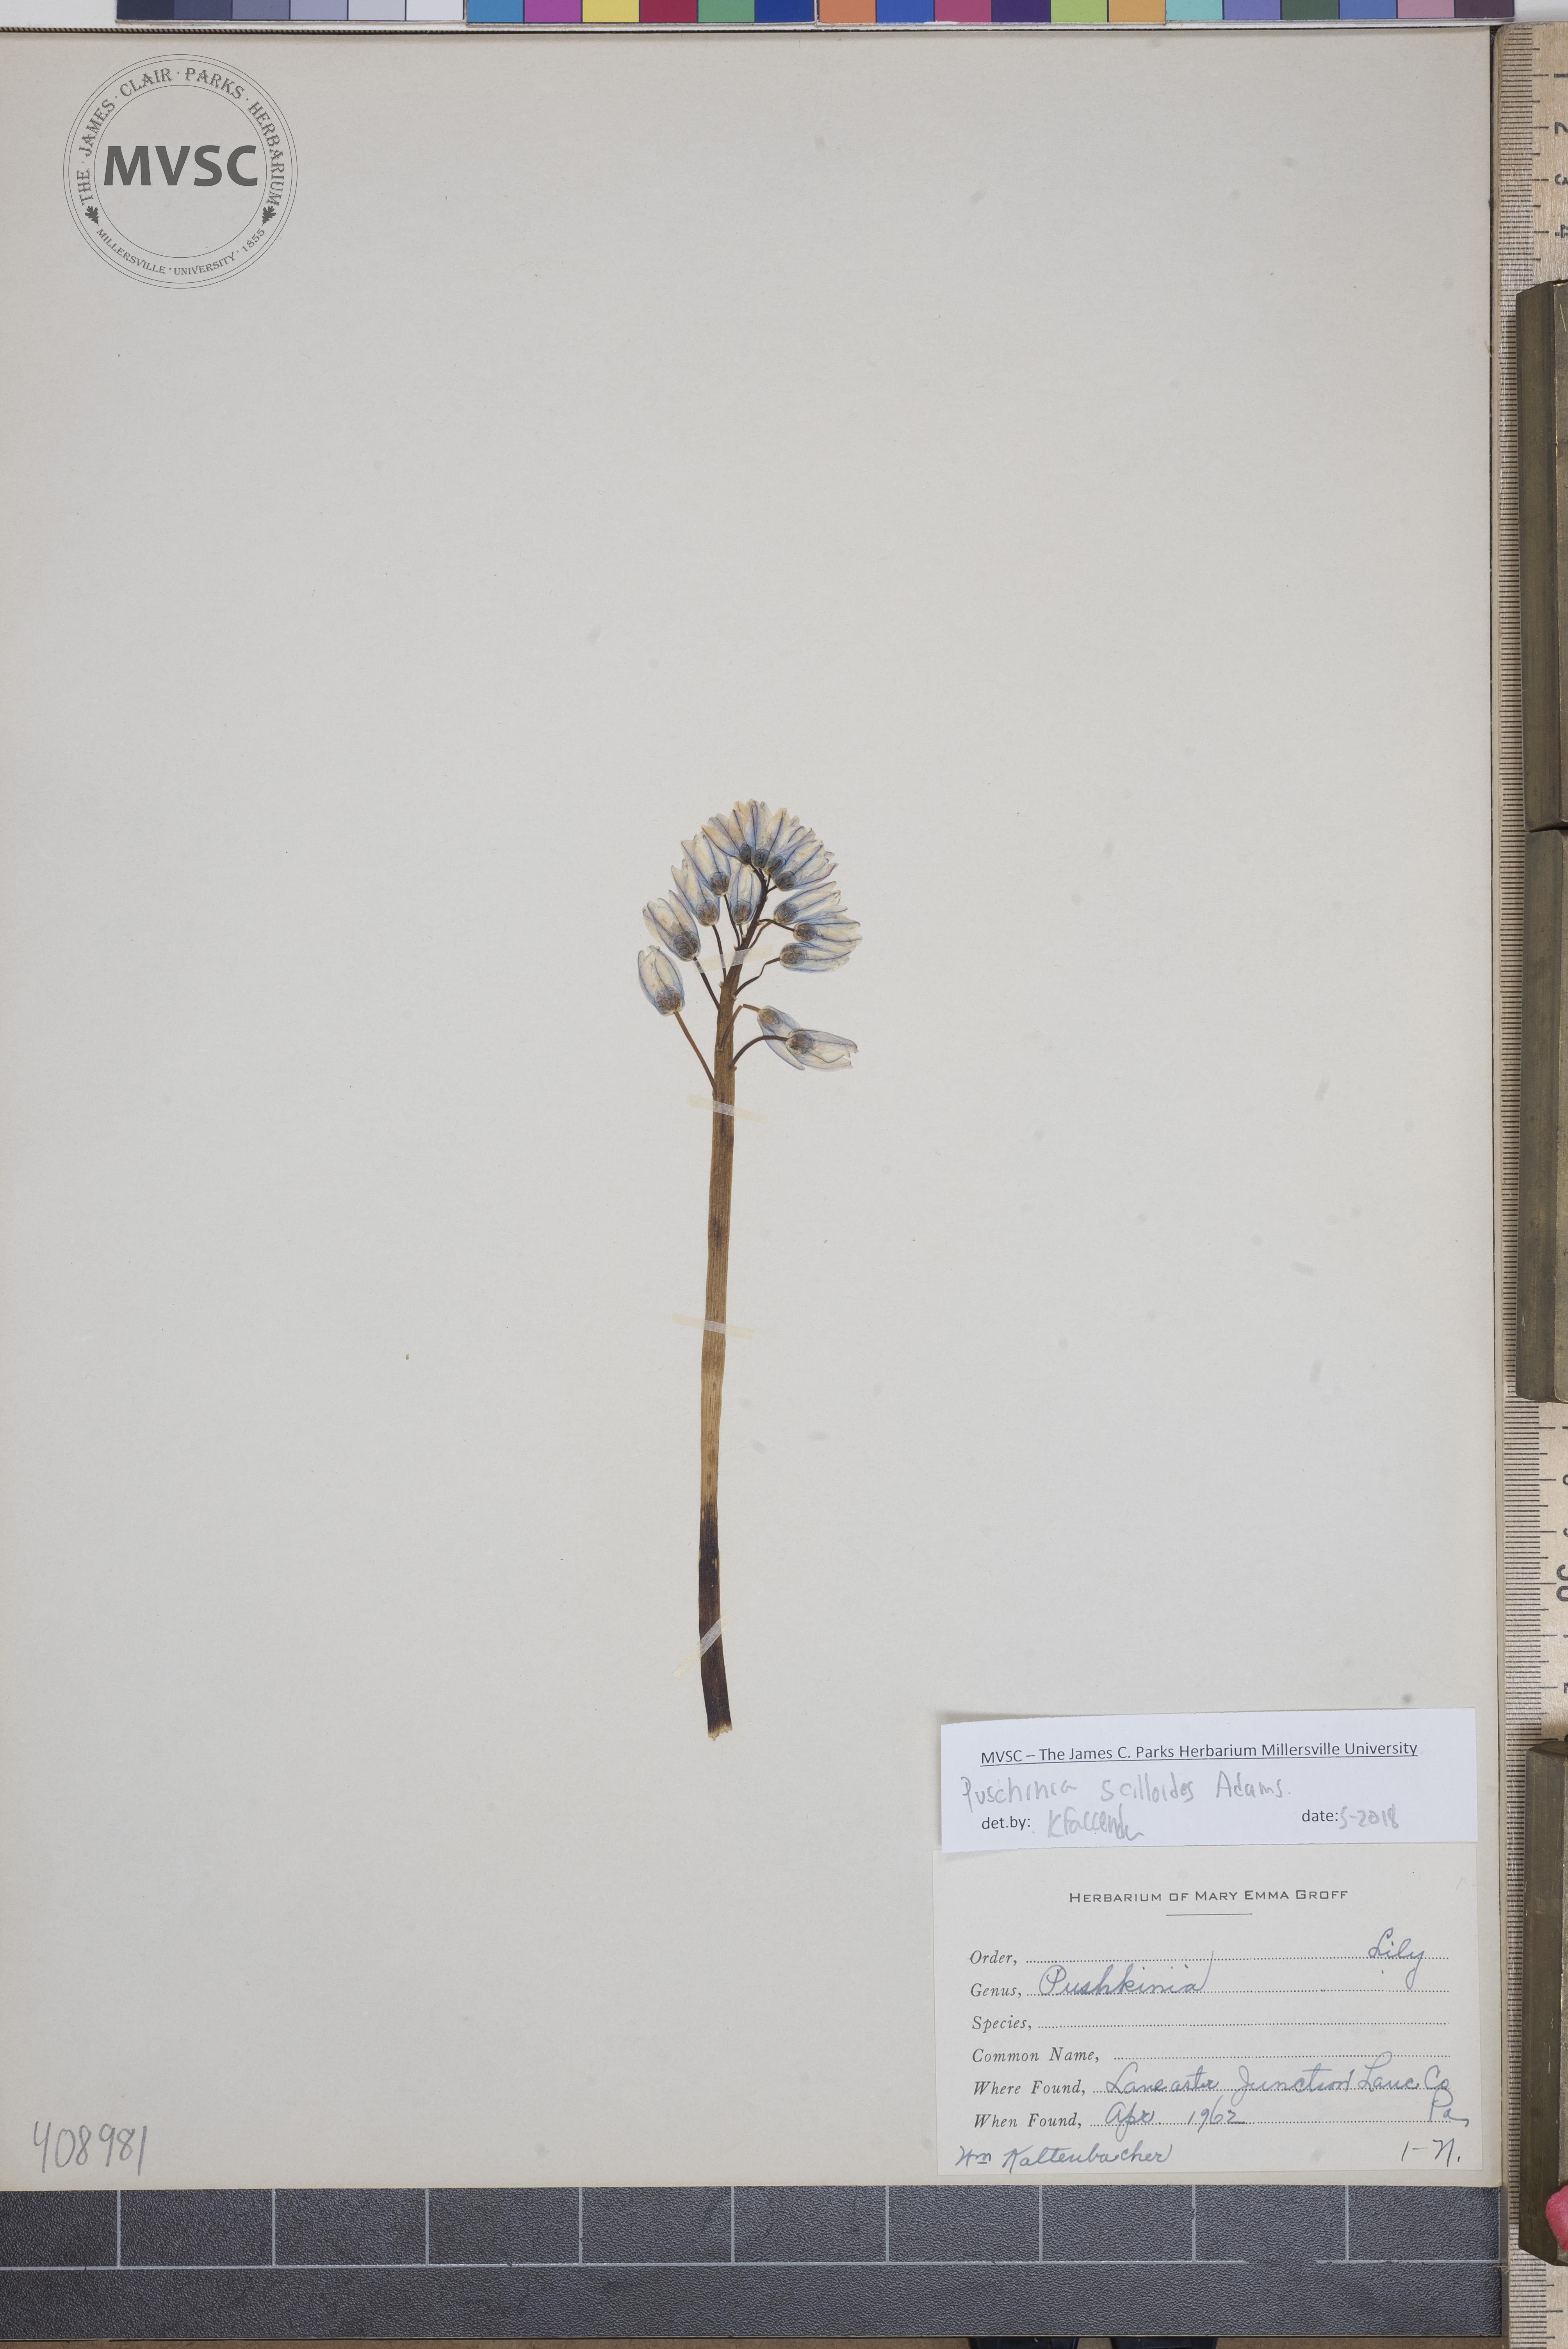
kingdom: Plantae
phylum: Tracheophyta
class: Liliopsida
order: Asparagales
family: Asparagaceae
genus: Puschkinia
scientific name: Puschkinia scilloides
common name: Striped squill
